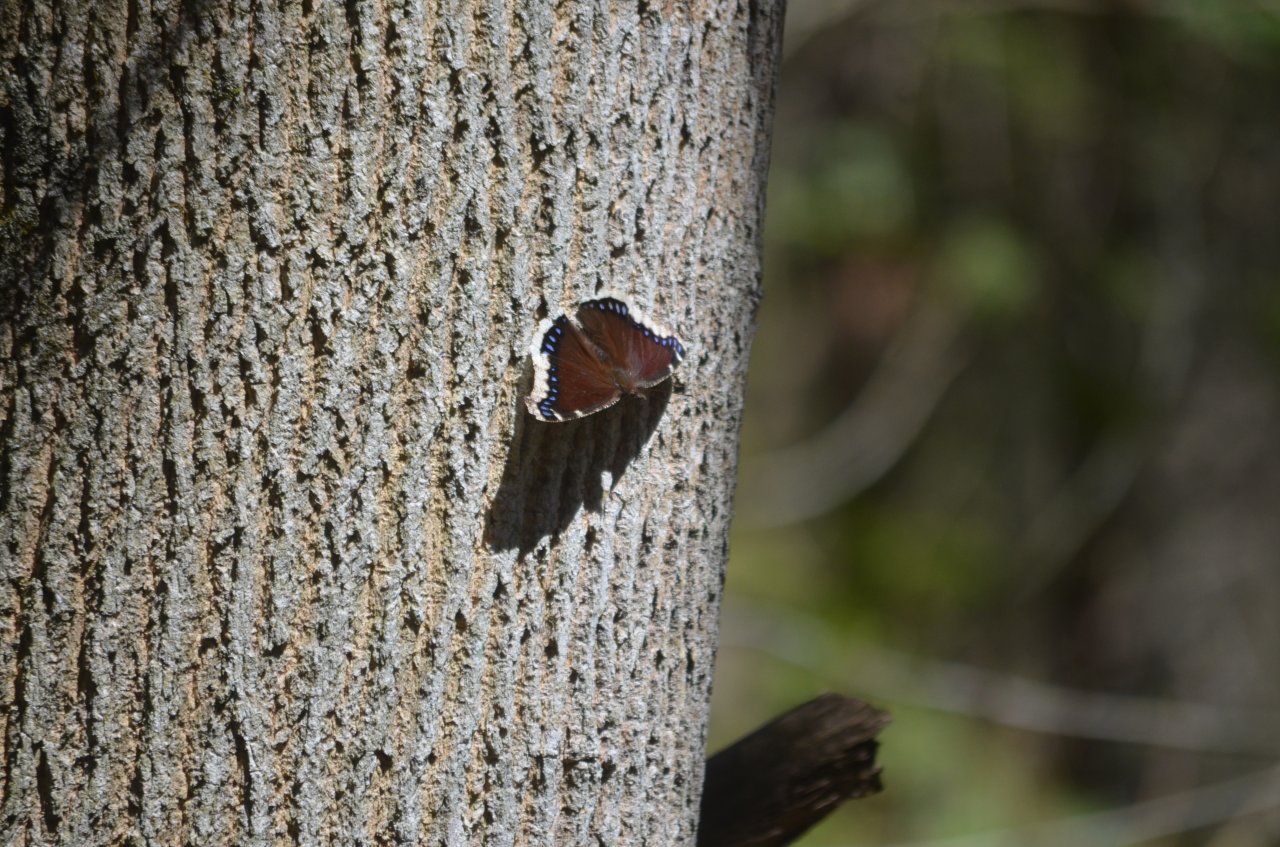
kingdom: Animalia
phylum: Arthropoda
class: Insecta
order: Lepidoptera
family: Nymphalidae
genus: Nymphalis
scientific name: Nymphalis antiopa
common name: Mourning Cloak
